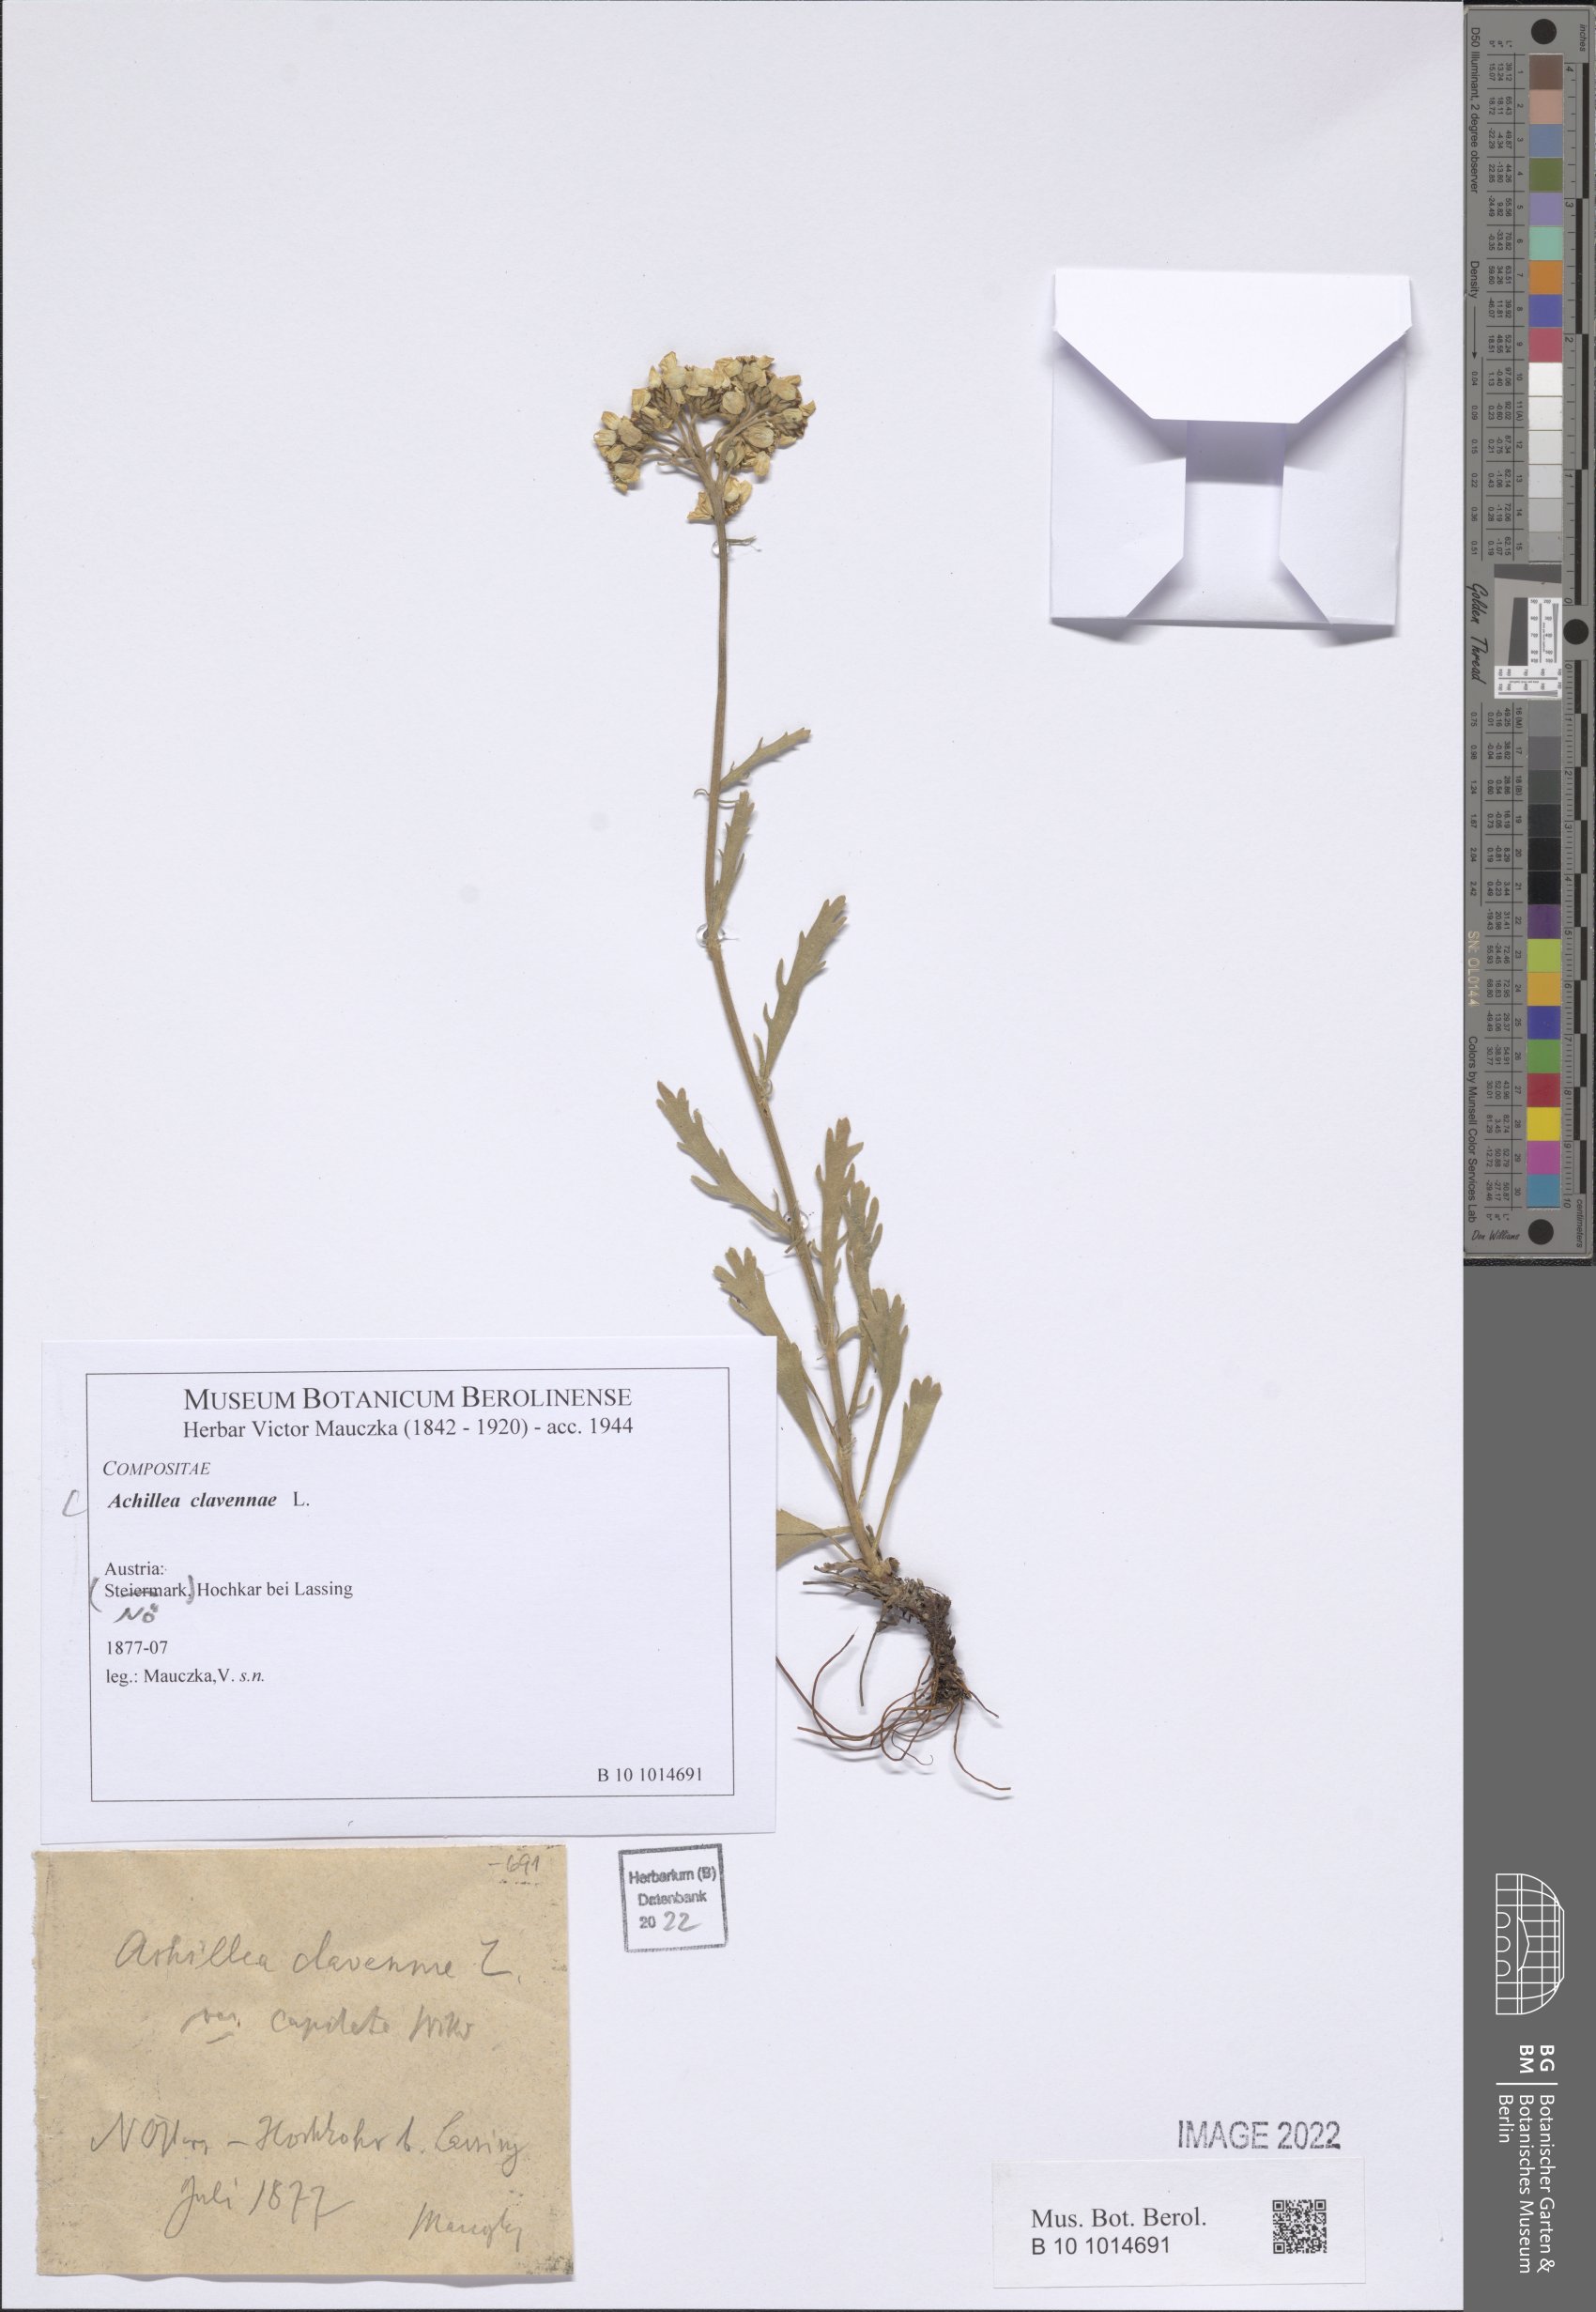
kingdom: Plantae
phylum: Tracheophyta
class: Magnoliopsida
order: Asterales
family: Asteraceae
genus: Achillea
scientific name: Achillea clavennae
